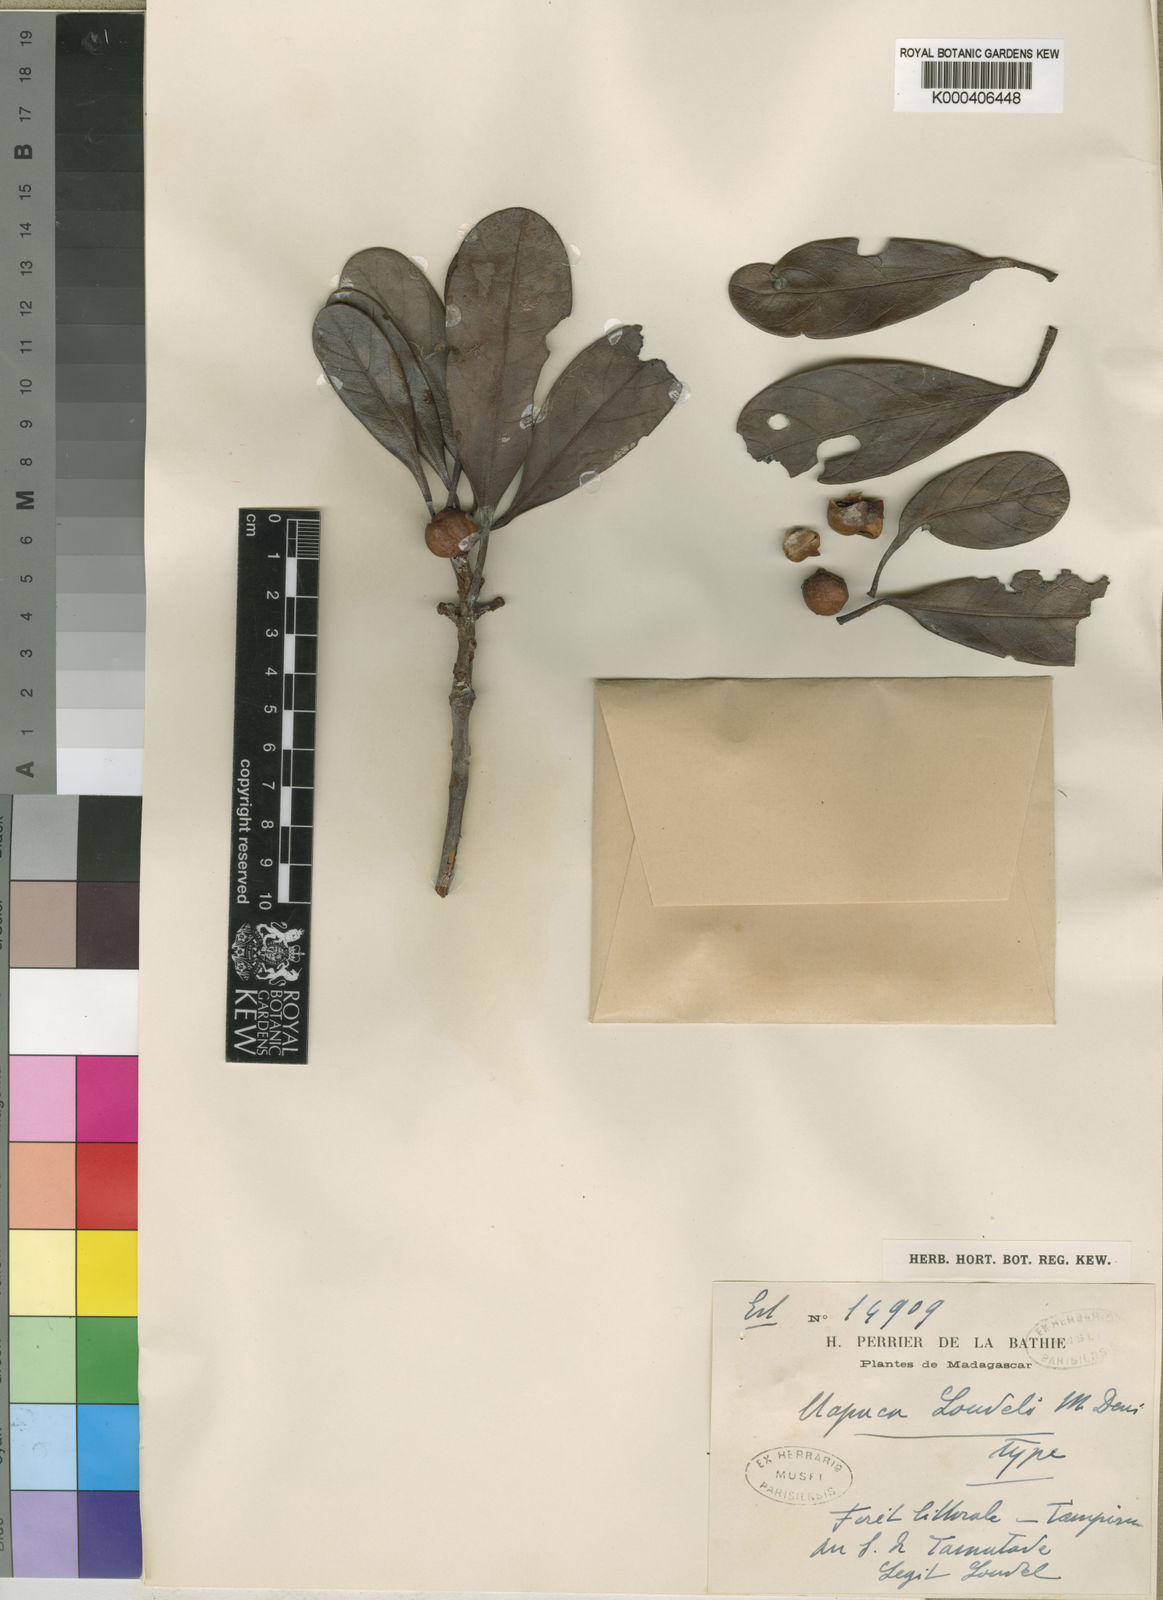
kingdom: Plantae
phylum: Tracheophyta
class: Magnoliopsida
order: Malpighiales
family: Phyllanthaceae
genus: Uapaca
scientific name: Uapaca louvelii
